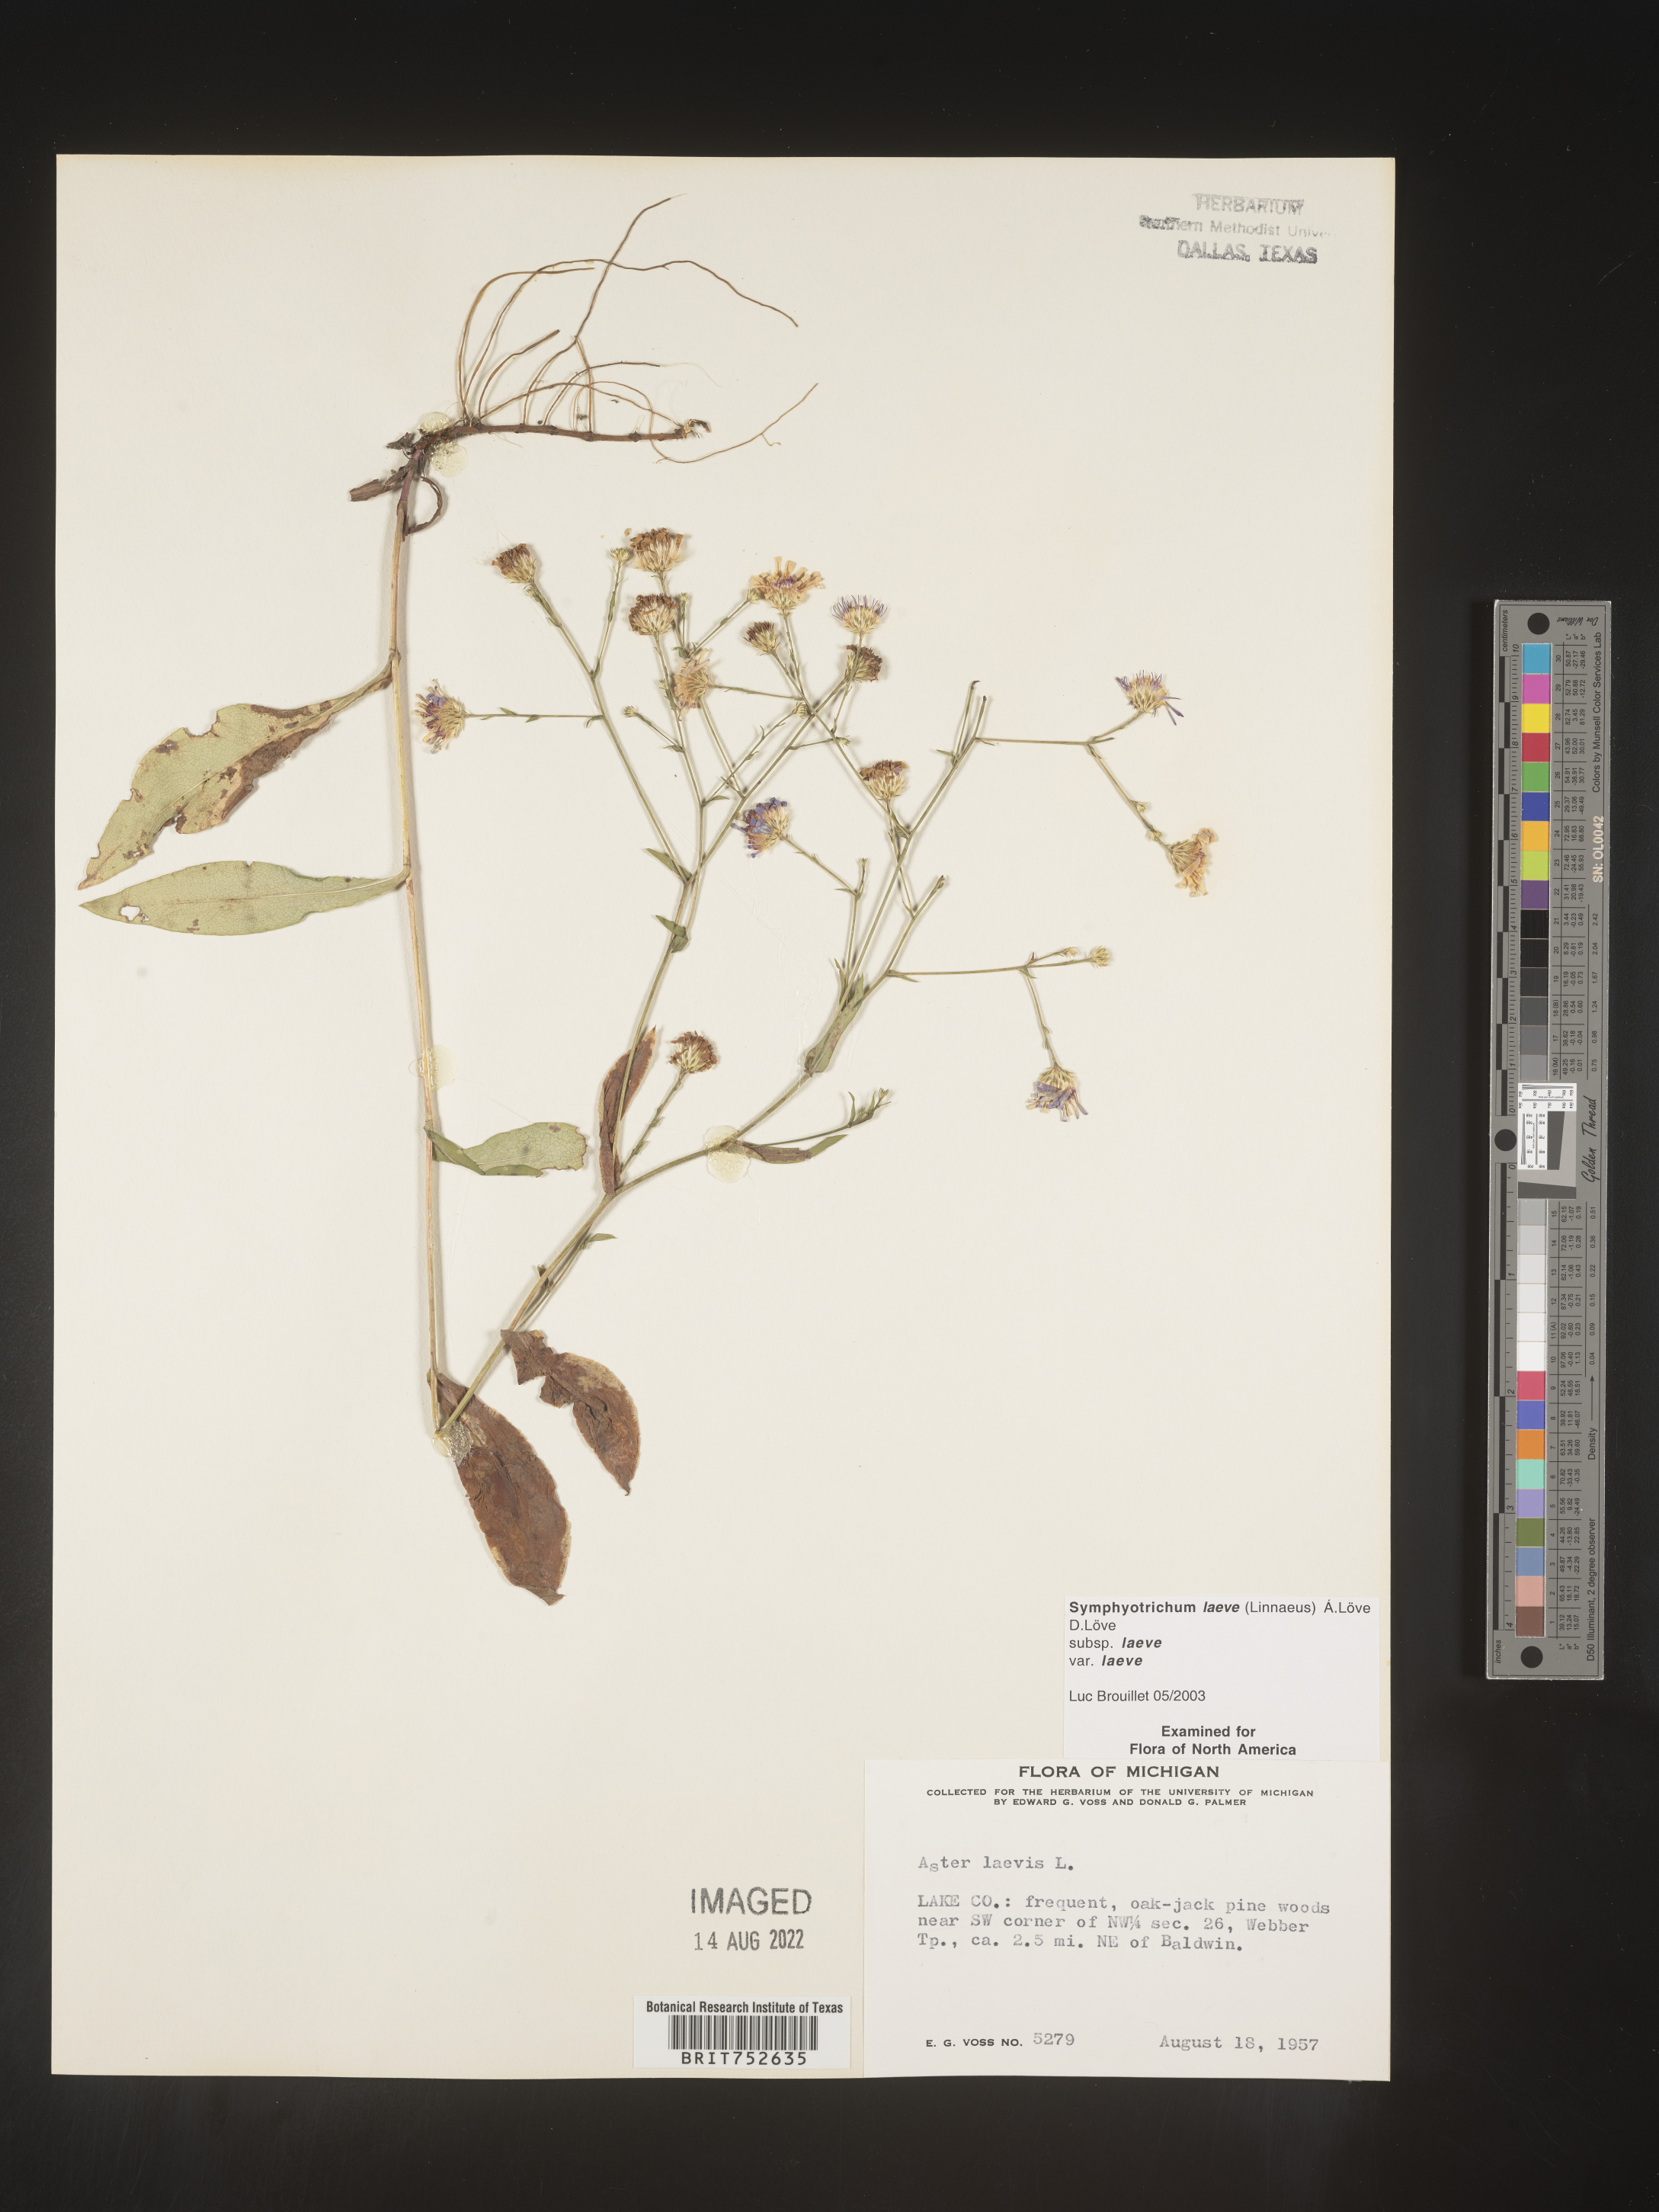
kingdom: Plantae
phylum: Tracheophyta
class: Magnoliopsida
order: Asterales
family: Asteraceae
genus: Symphyotrichum
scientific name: Symphyotrichum laeve
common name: Glaucous aster
